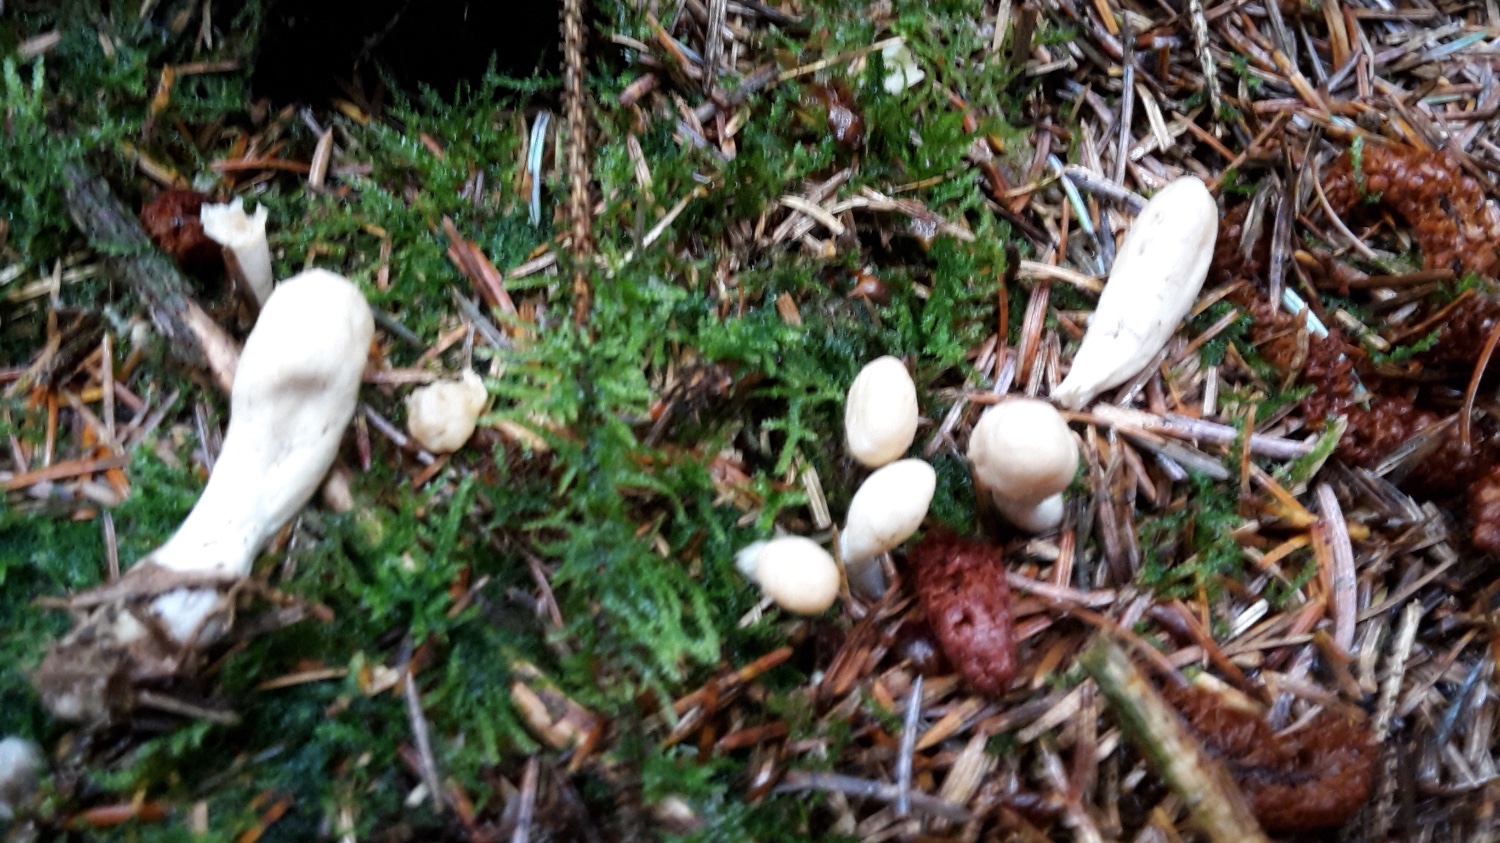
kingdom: Fungi
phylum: Ascomycota
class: Sordariomycetes
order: Hypocreales
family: Hypocreaceae
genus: Trichoderma
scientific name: Trichoderma leucopus
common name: lysstokket kødkerne
